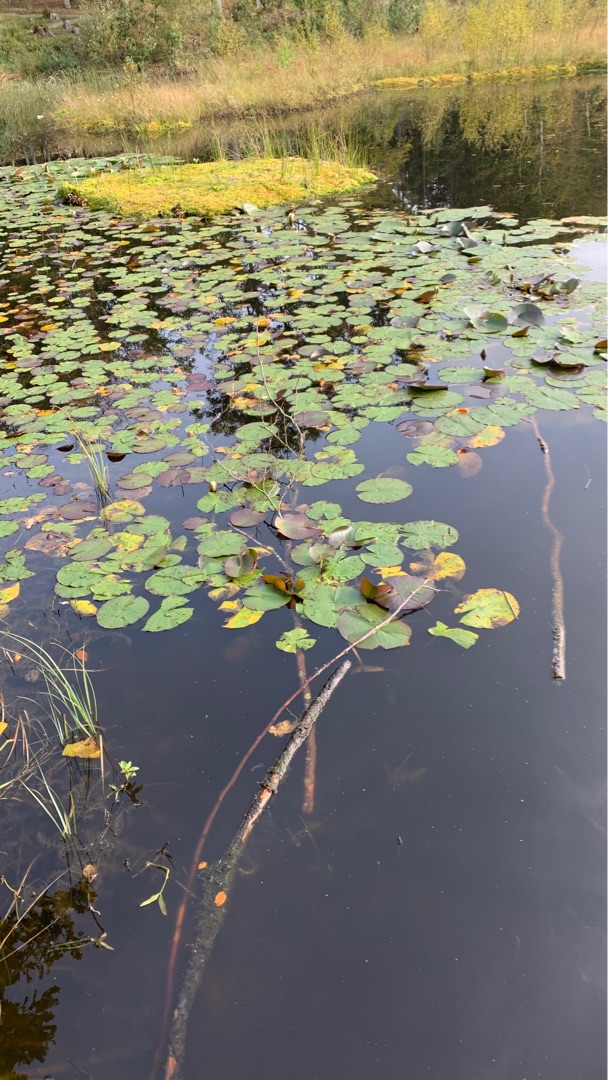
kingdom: Plantae
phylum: Tracheophyta
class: Magnoliopsida
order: Nymphaeales
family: Nymphaeaceae
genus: Nymphaea
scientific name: Nymphaea alba
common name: Hvid åkande
